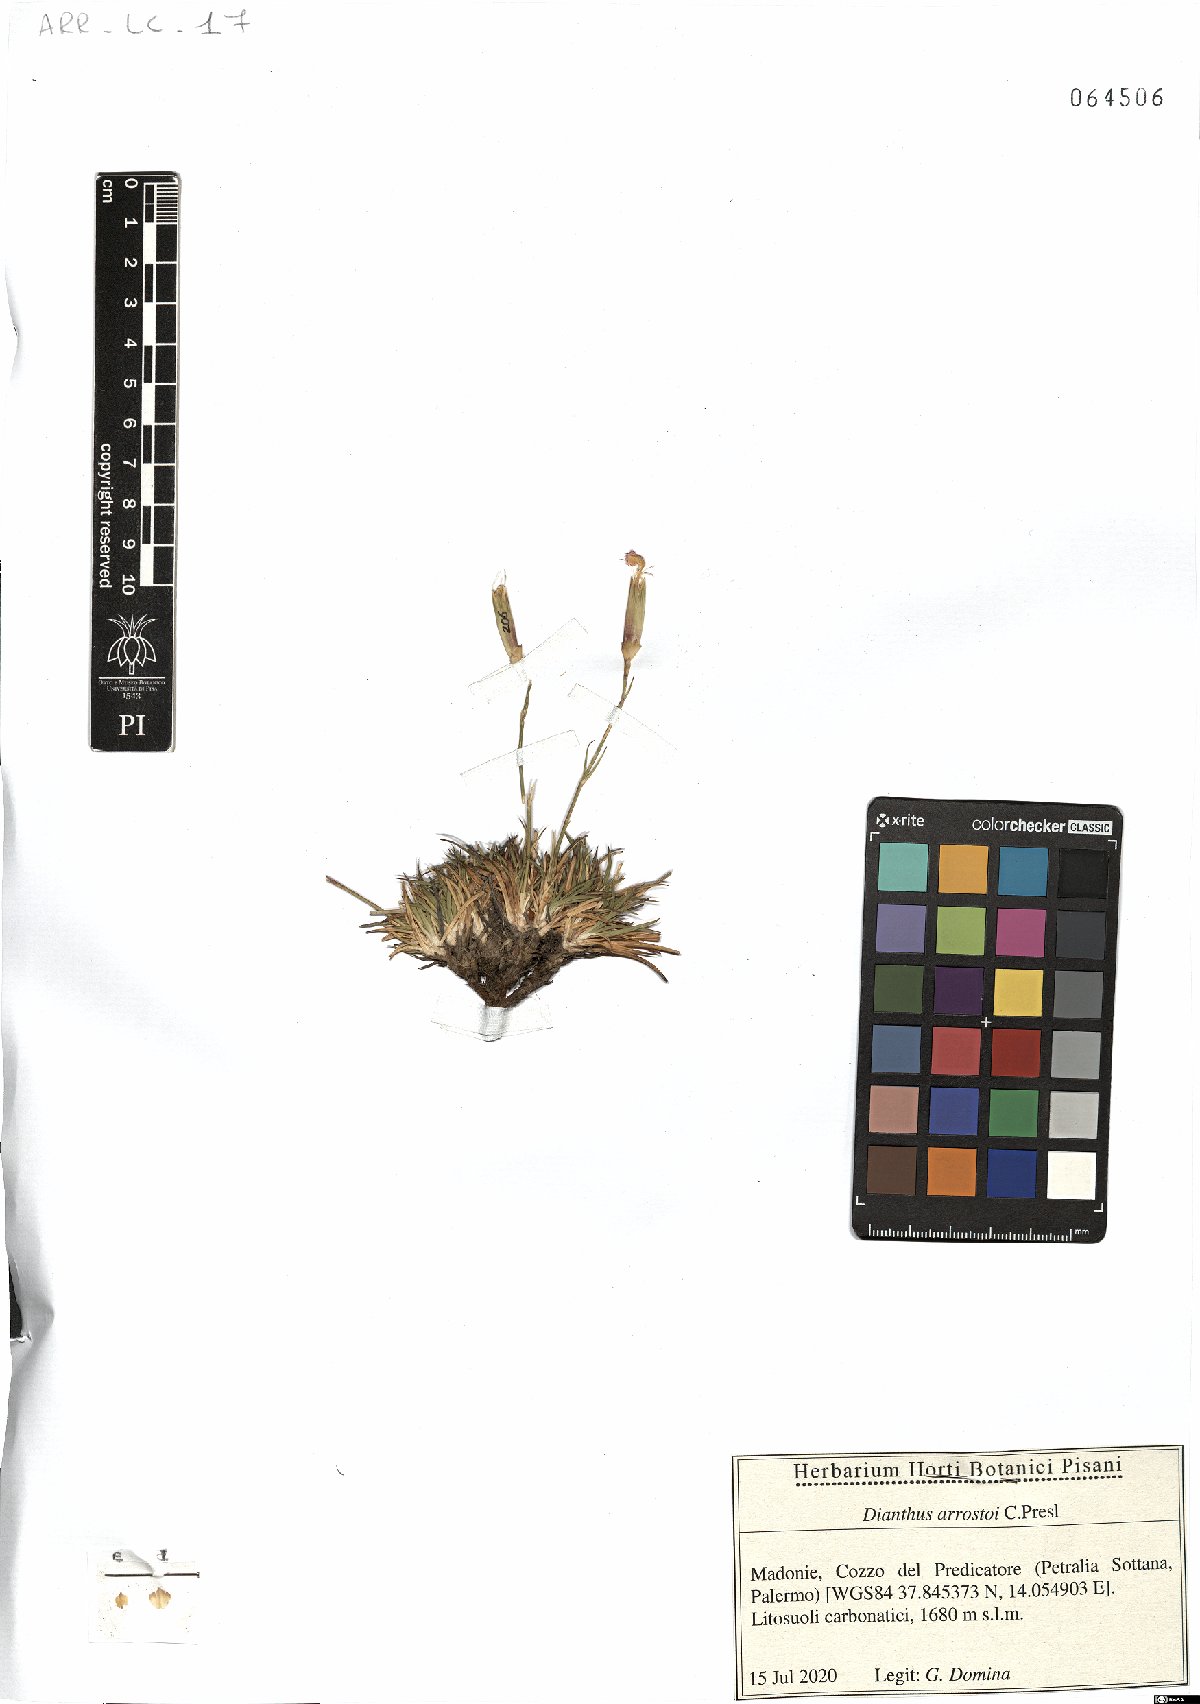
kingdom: Plantae
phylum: Tracheophyta
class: Magnoliopsida
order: Caryophyllales
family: Caryophyllaceae
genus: Dianthus
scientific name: Dianthus arrostoi
